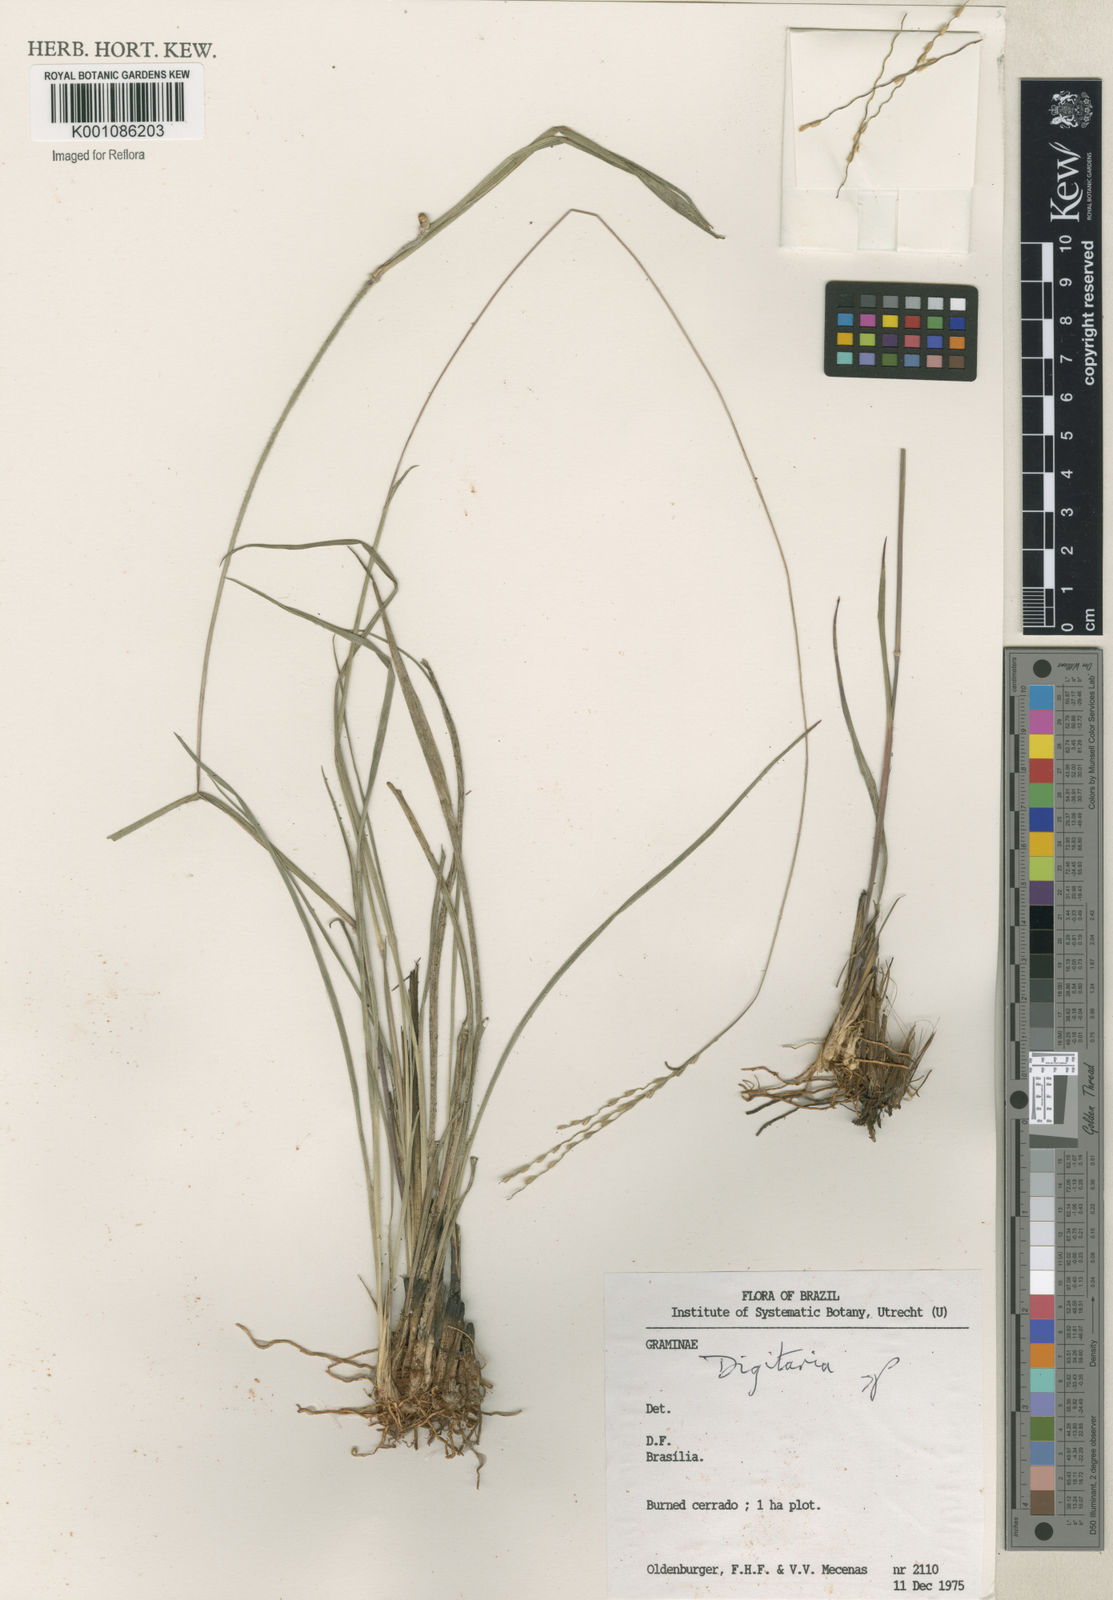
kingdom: Plantae
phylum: Tracheophyta
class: Liliopsida
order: Poales
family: Poaceae
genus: Axonopus
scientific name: Axonopus
